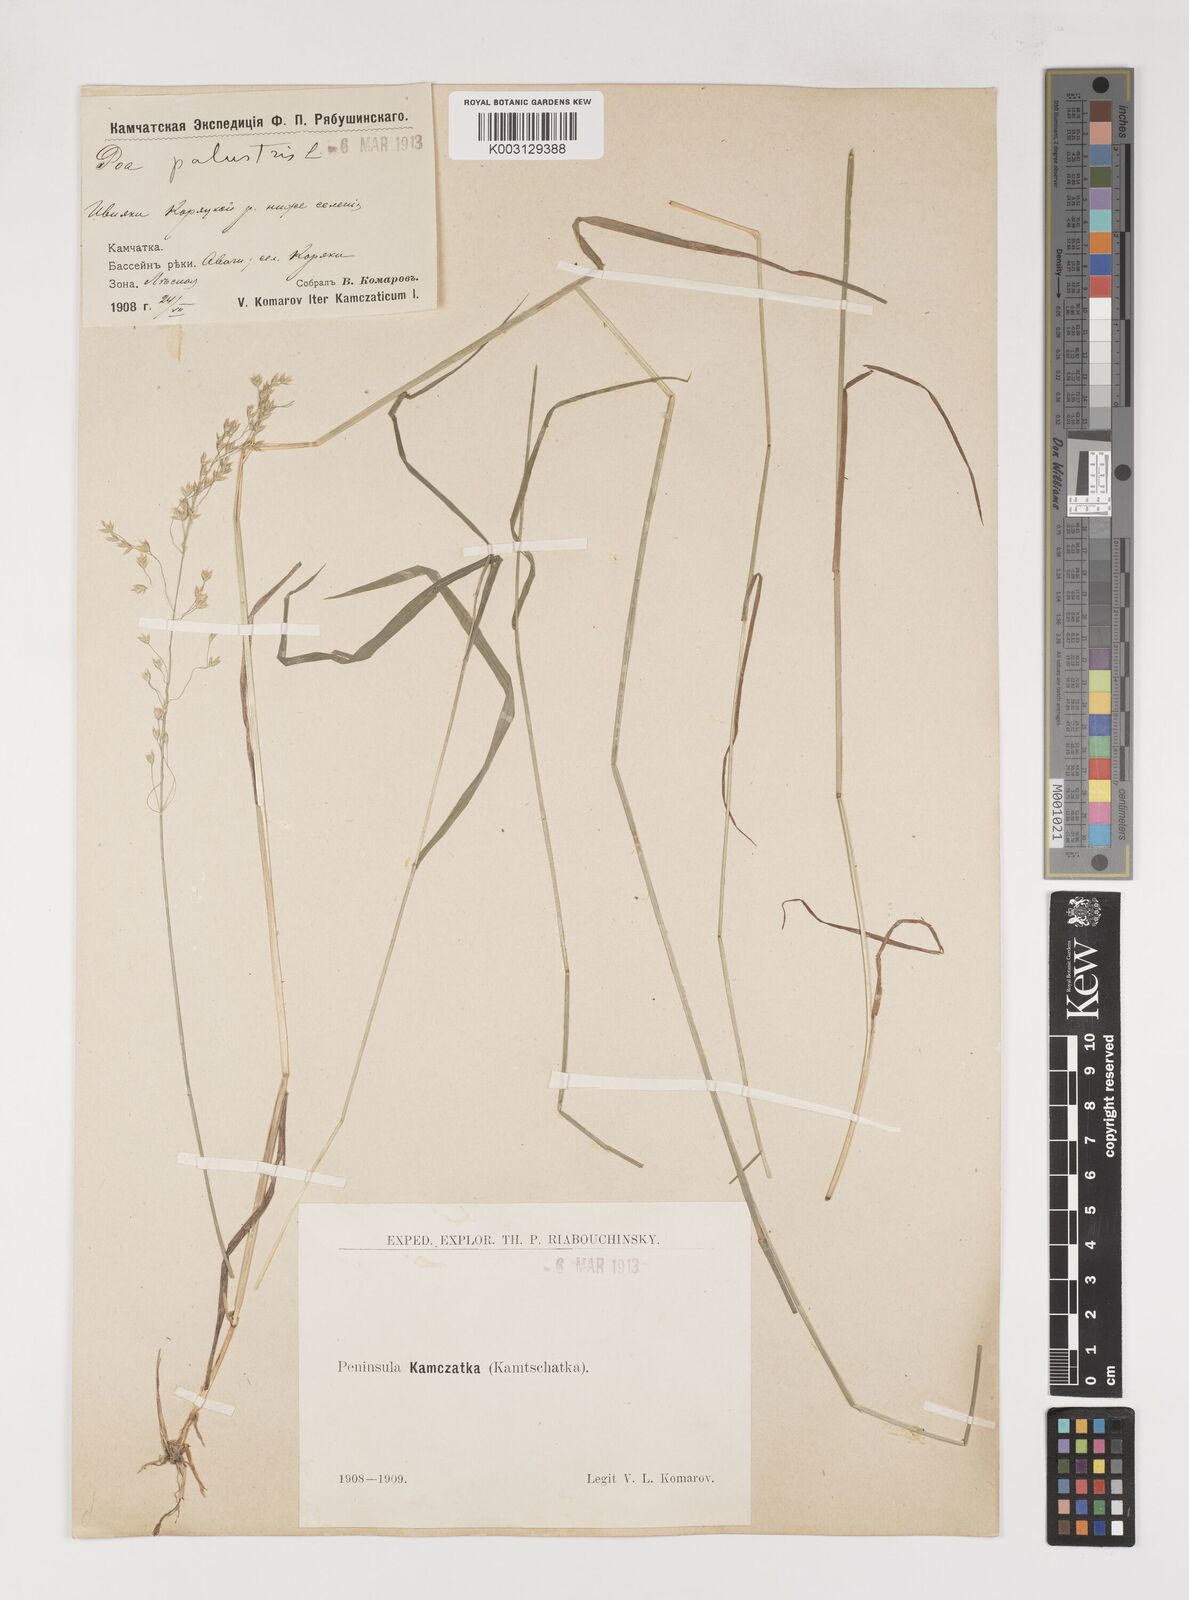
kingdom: Plantae
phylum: Tracheophyta
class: Liliopsida
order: Poales
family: Poaceae
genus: Poa
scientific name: Poa palustris
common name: Swamp meadow-grass
